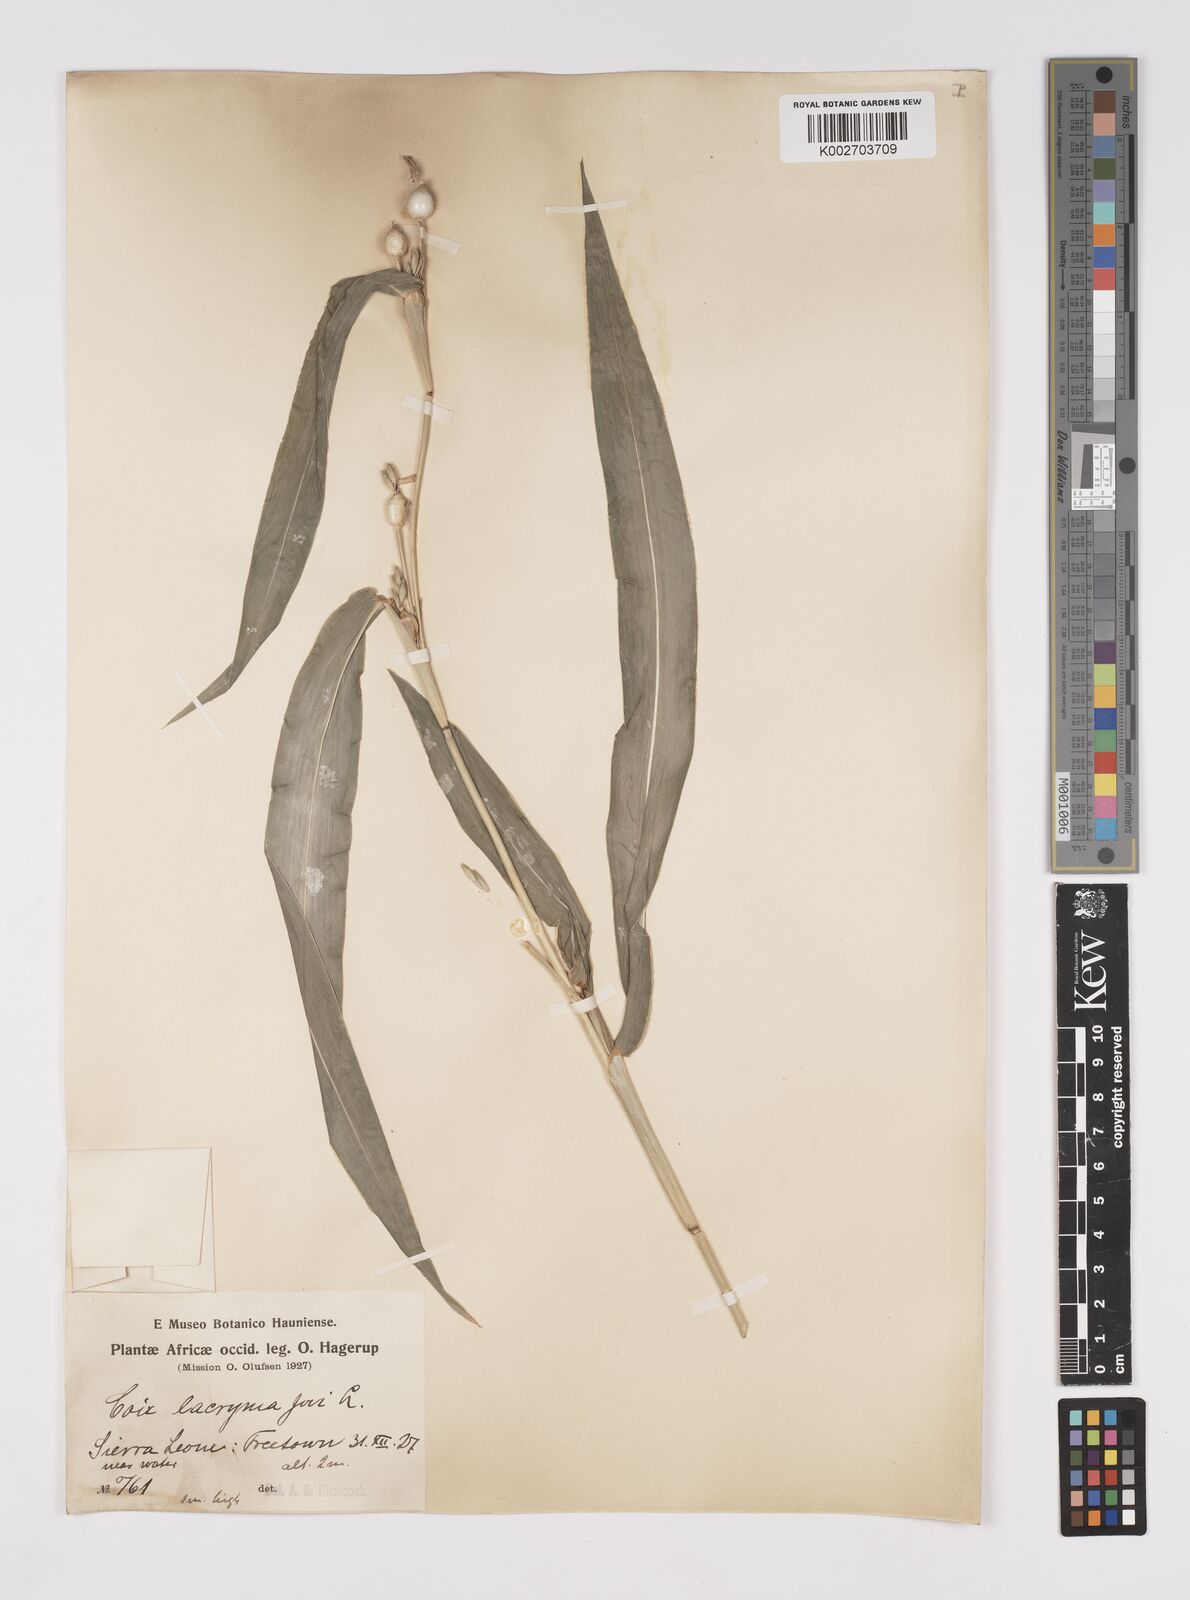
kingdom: Plantae
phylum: Tracheophyta
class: Liliopsida
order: Poales
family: Poaceae
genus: Coix
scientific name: Coix lacryma-jobi
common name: Job's tears
